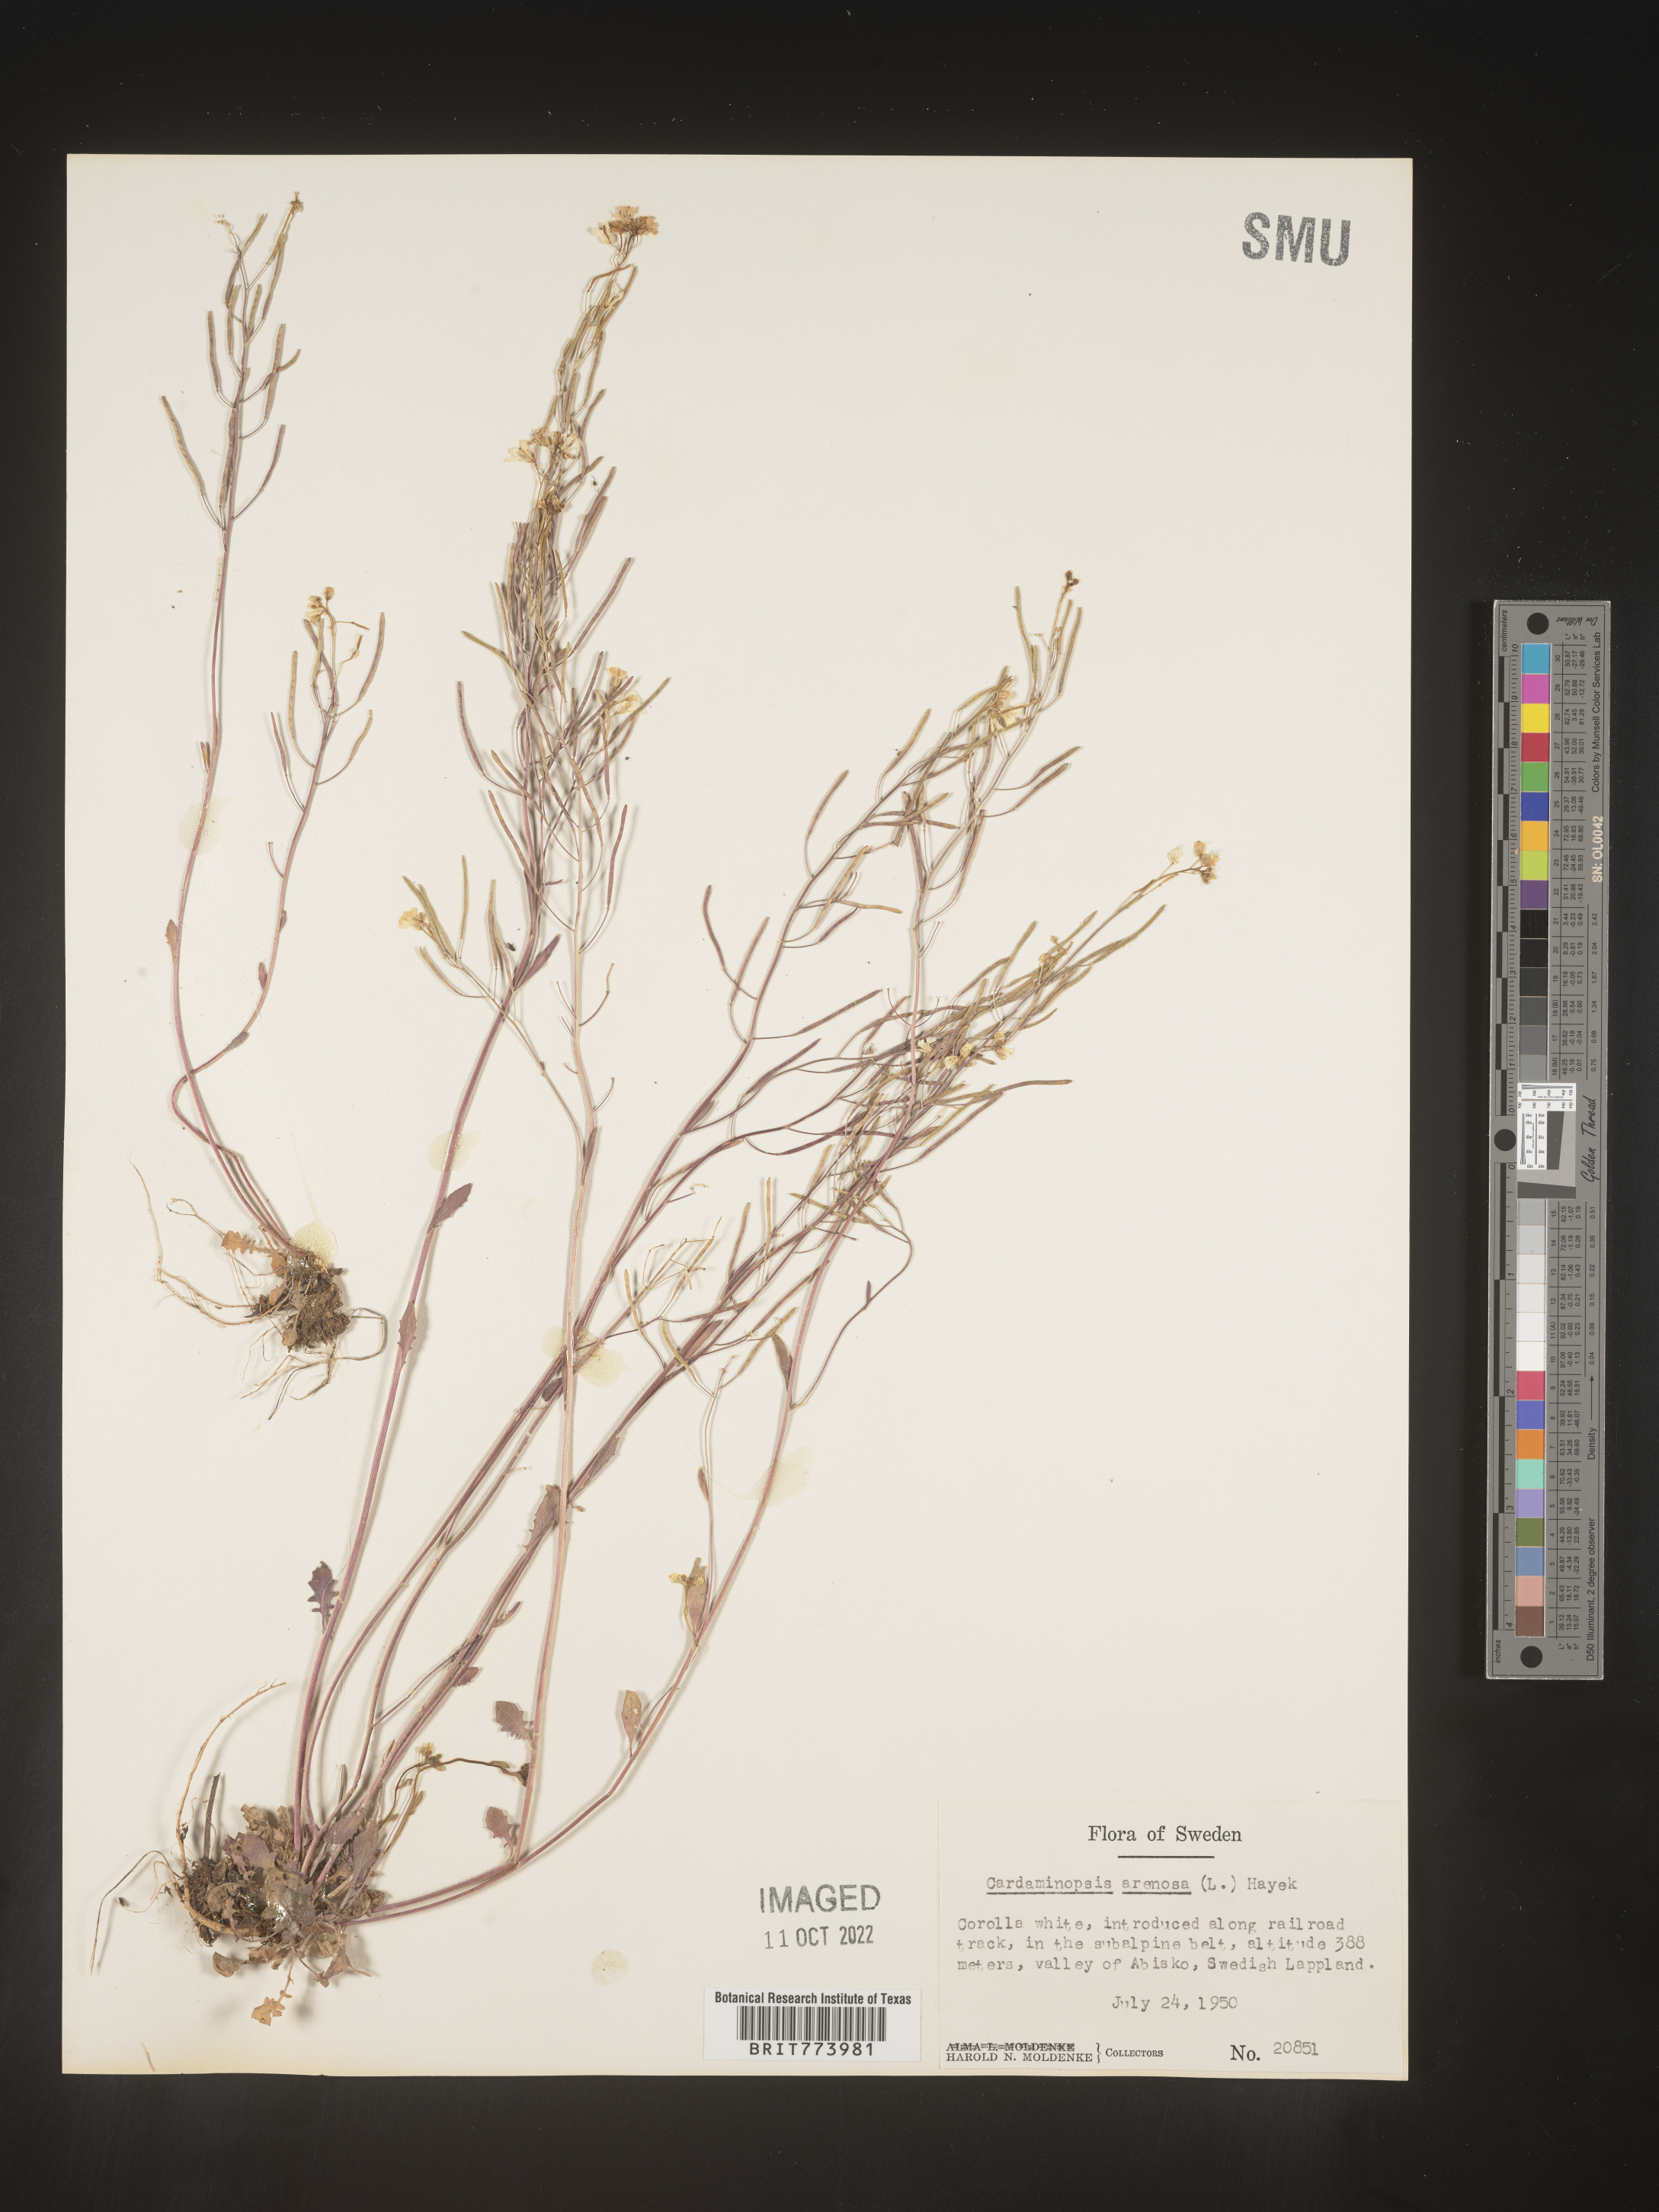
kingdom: Plantae
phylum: Tracheophyta
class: Magnoliopsida
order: Brassicales
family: Brassicaceae
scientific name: Brassicaceae
